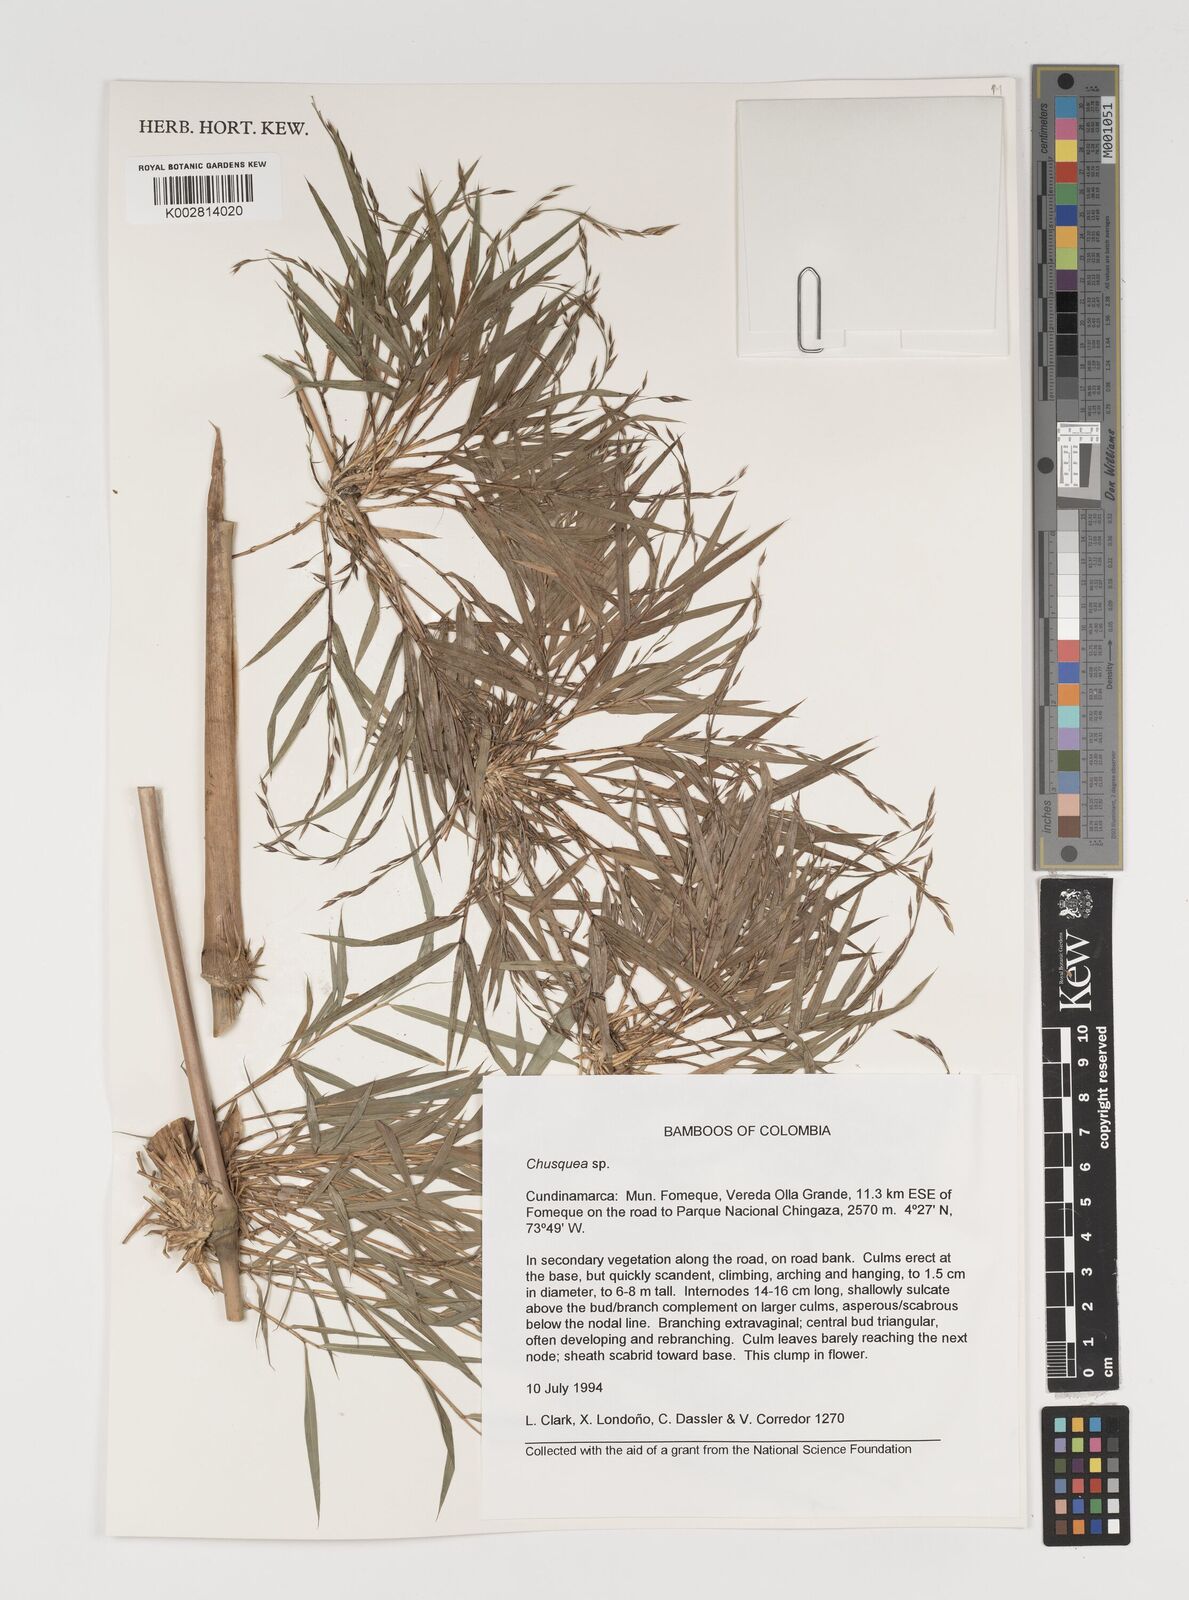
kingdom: Plantae
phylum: Tracheophyta
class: Liliopsida
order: Poales
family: Poaceae
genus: Chusquea
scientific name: Chusquea
